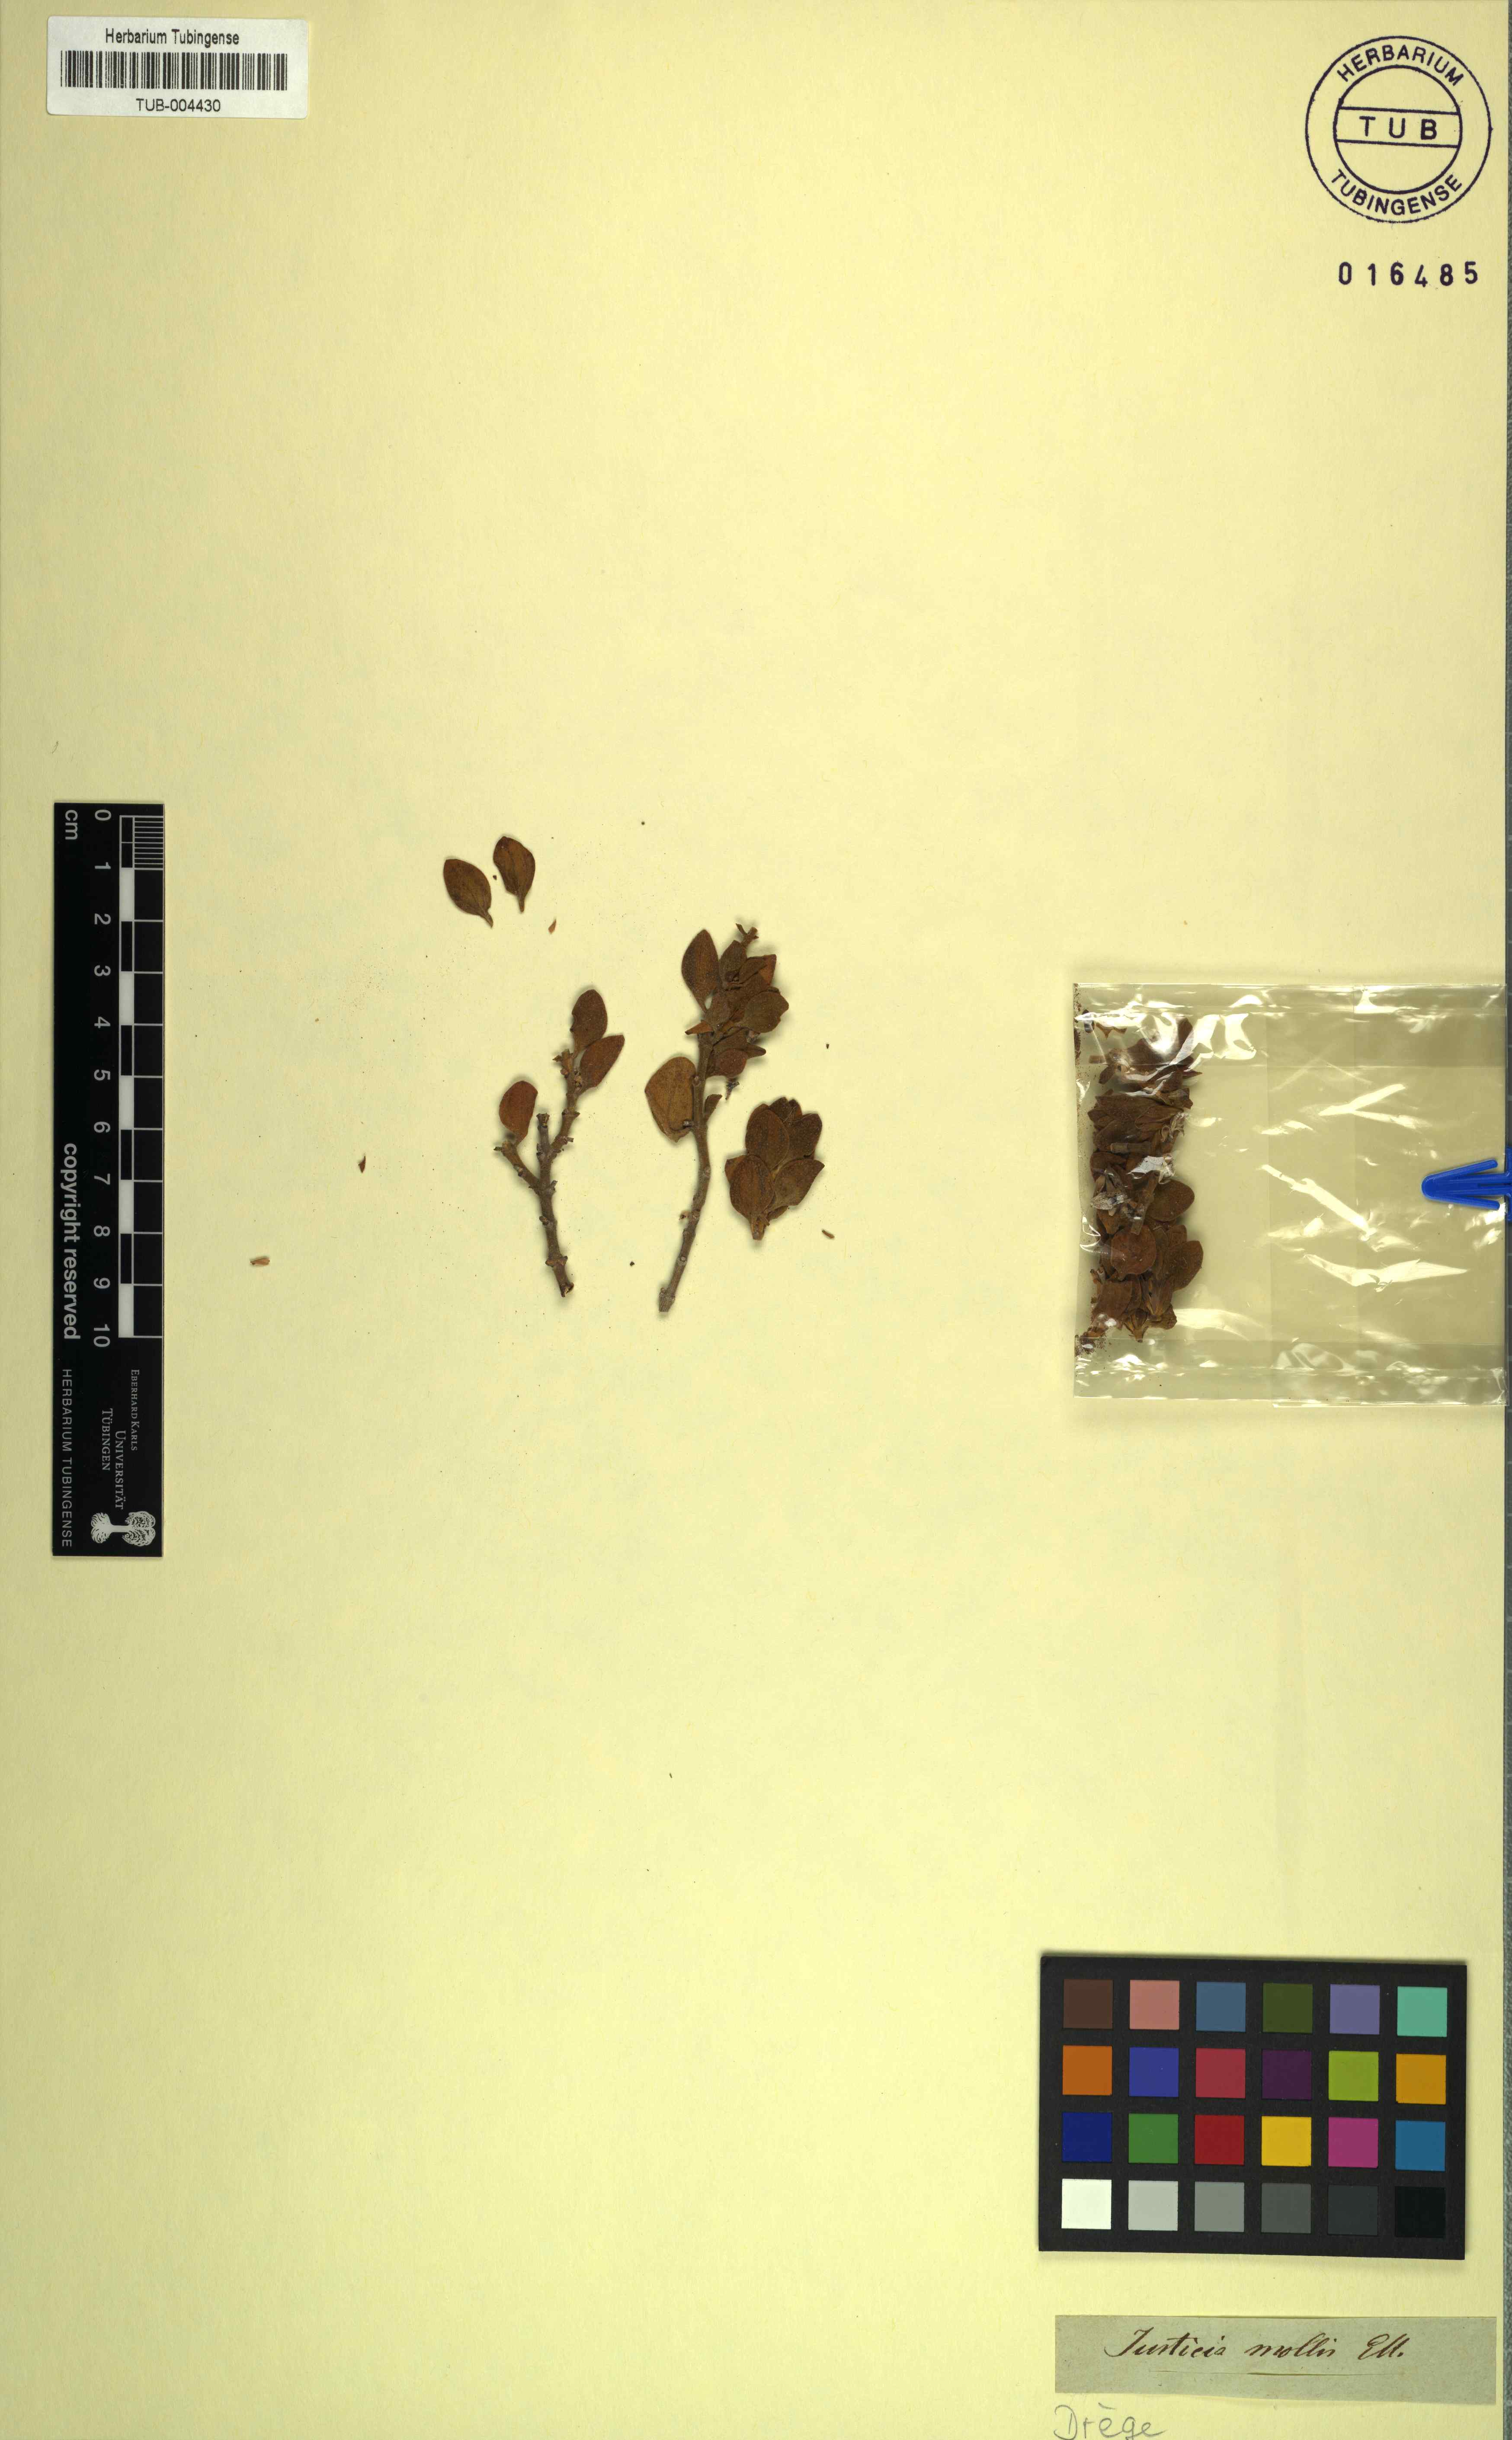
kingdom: Plantae
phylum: Tracheophyta
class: Magnoliopsida
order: Lamiales
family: Acanthaceae
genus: Monechma
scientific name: Monechma mollissimum
